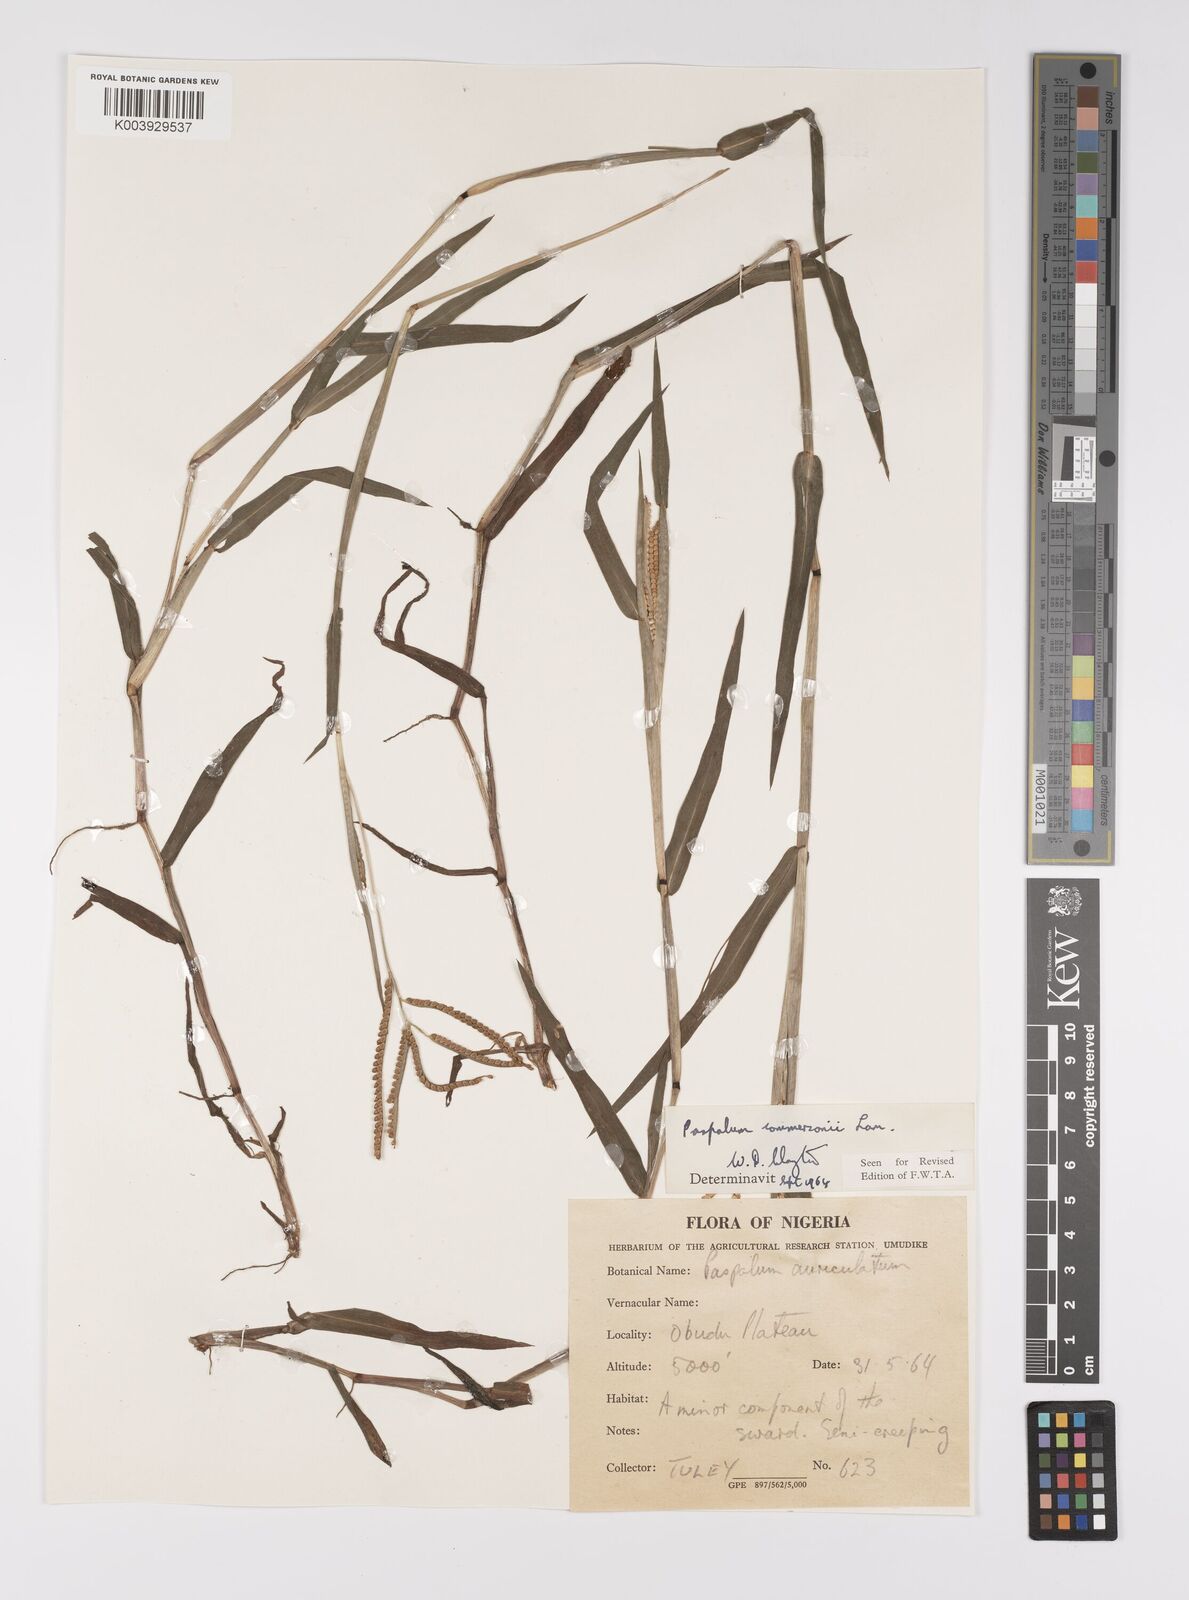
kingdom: Plantae
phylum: Tracheophyta
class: Liliopsida
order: Poales
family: Poaceae
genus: Paspalum
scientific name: Paspalum scrobiculatum
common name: Kodo millet
